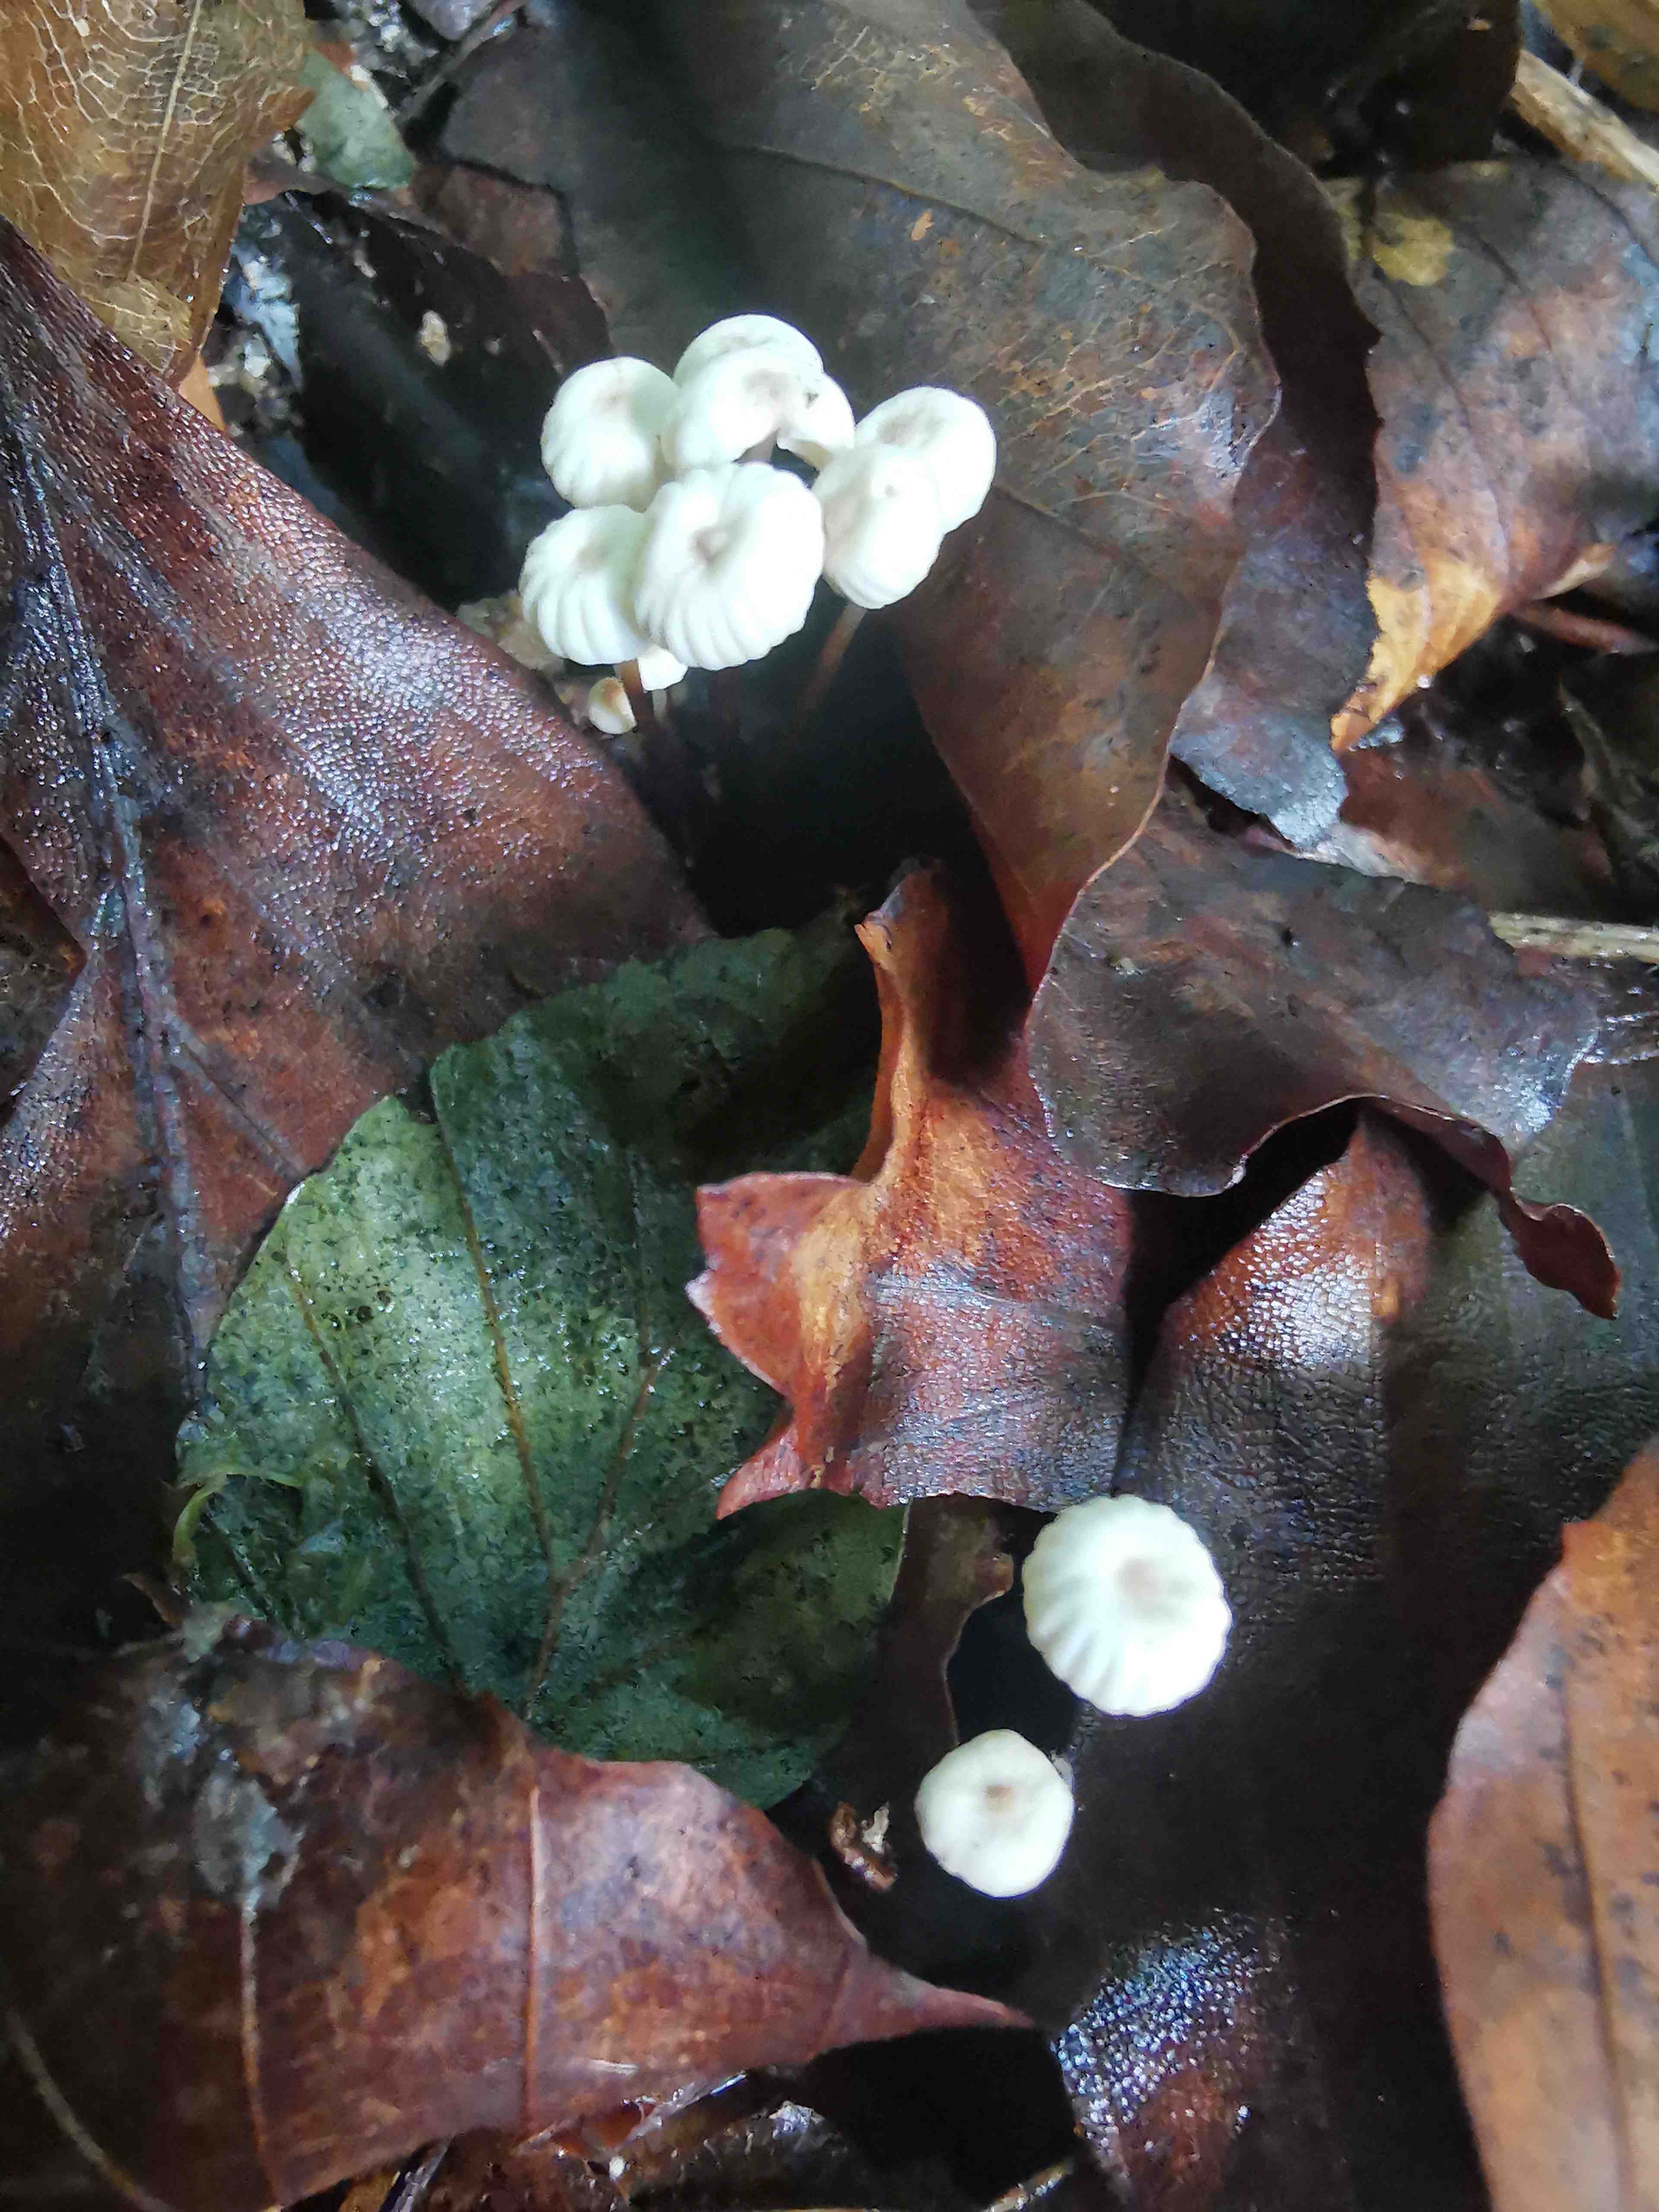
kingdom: Fungi
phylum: Basidiomycota
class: Agaricomycetes
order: Agaricales
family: Marasmiaceae
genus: Marasmius
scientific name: Marasmius rotula
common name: hjul-bruskhat
